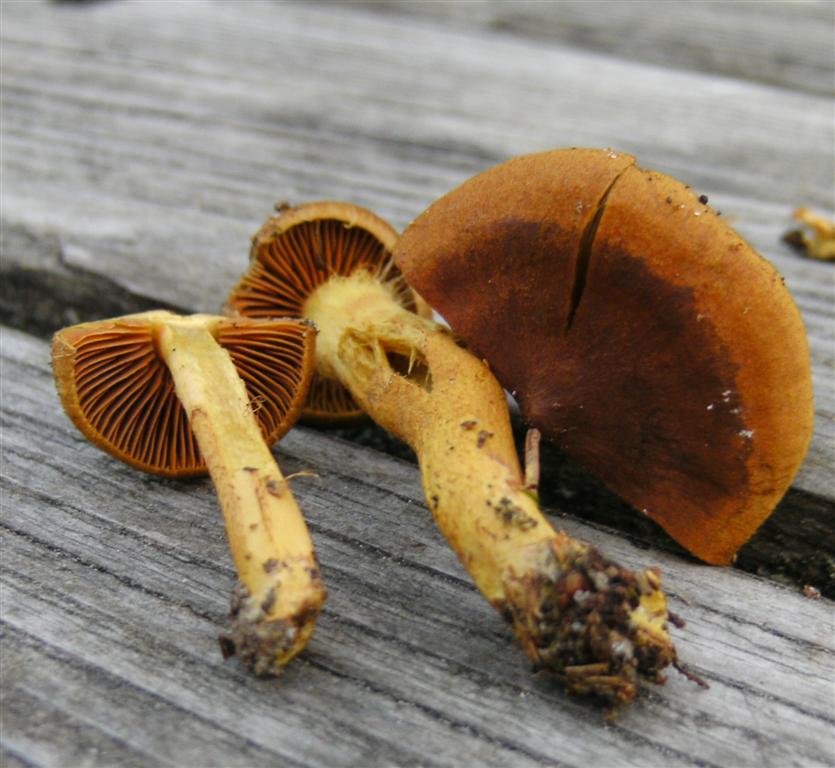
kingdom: Fungi
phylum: Basidiomycota
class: Agaricomycetes
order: Agaricales
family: Cortinariaceae
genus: Cortinarius
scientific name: Cortinarius cinnamomeus
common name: kanel-slørhat
